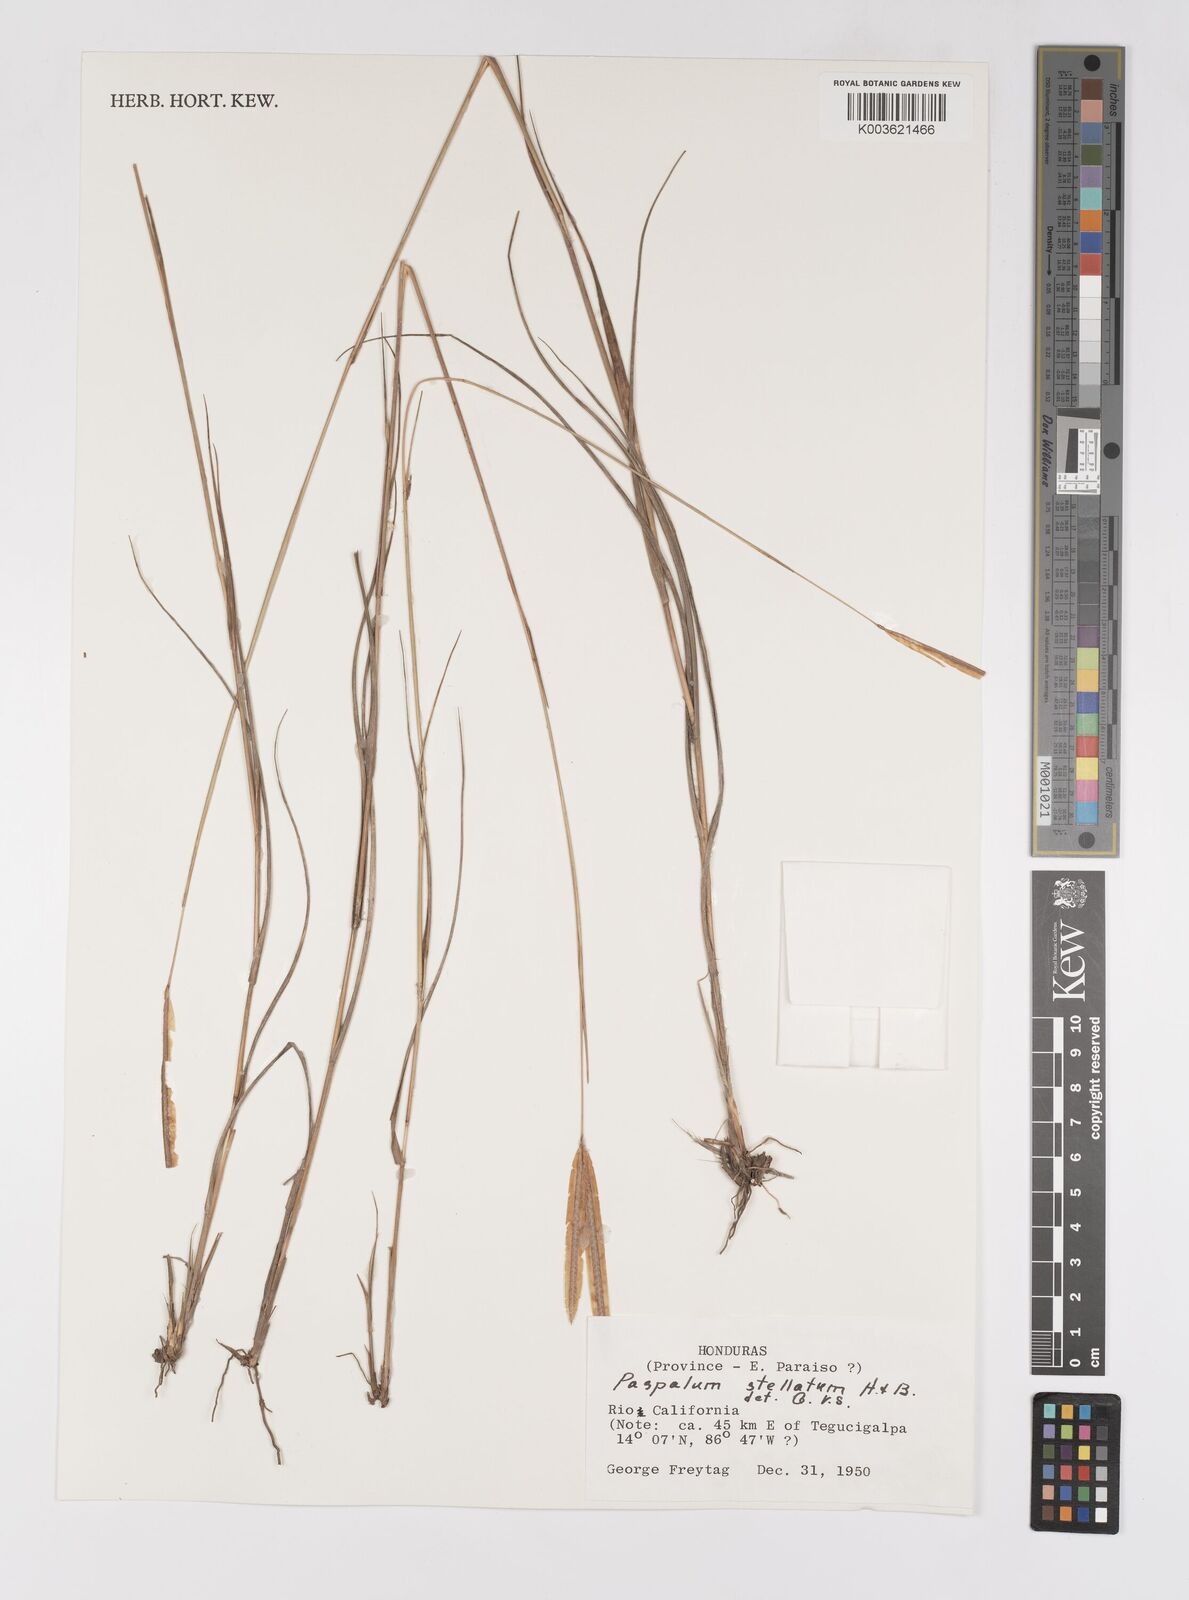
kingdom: Plantae
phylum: Tracheophyta
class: Liliopsida
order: Poales
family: Poaceae
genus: Paspalum
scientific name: Paspalum stellatum
